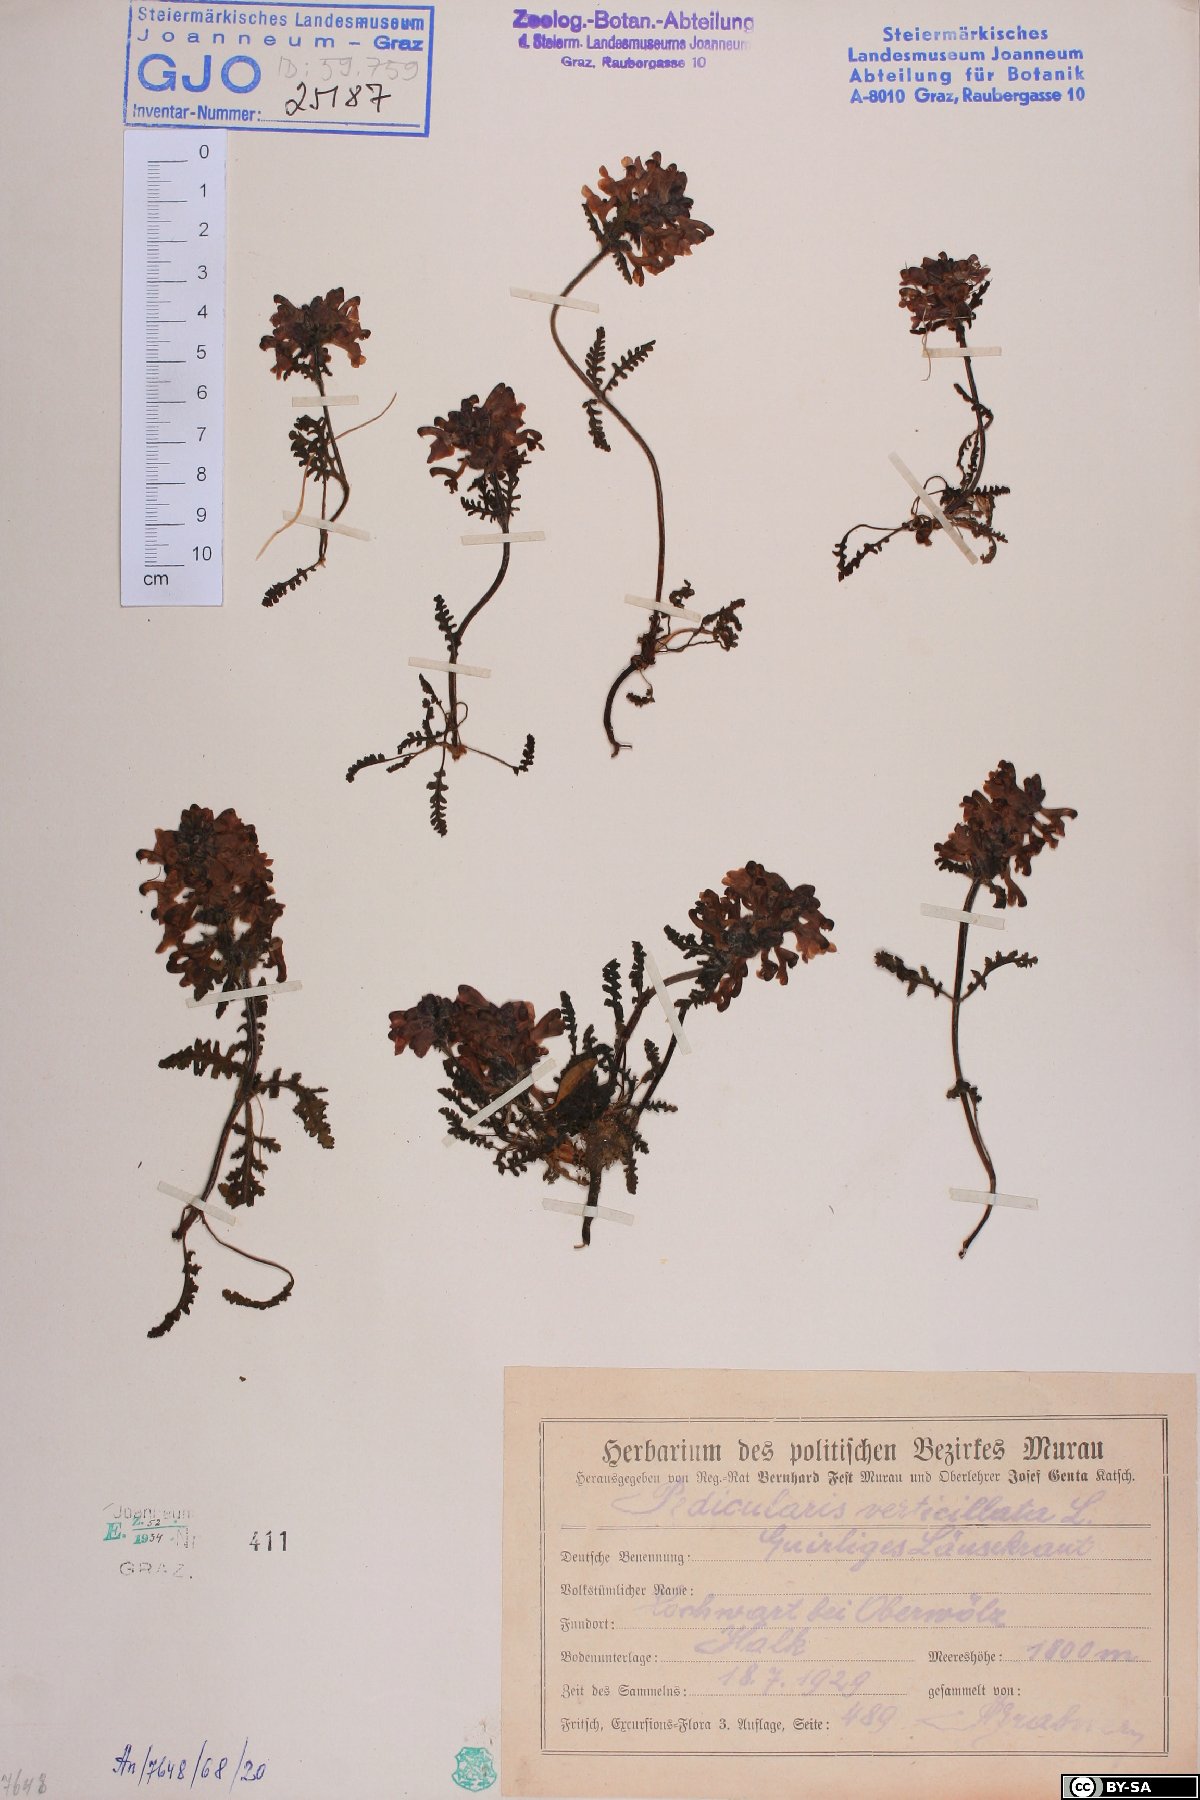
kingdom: Plantae
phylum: Tracheophyta
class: Magnoliopsida
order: Lamiales
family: Orobanchaceae
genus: Pedicularis
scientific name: Pedicularis verticillata
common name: Whorled lousewort
